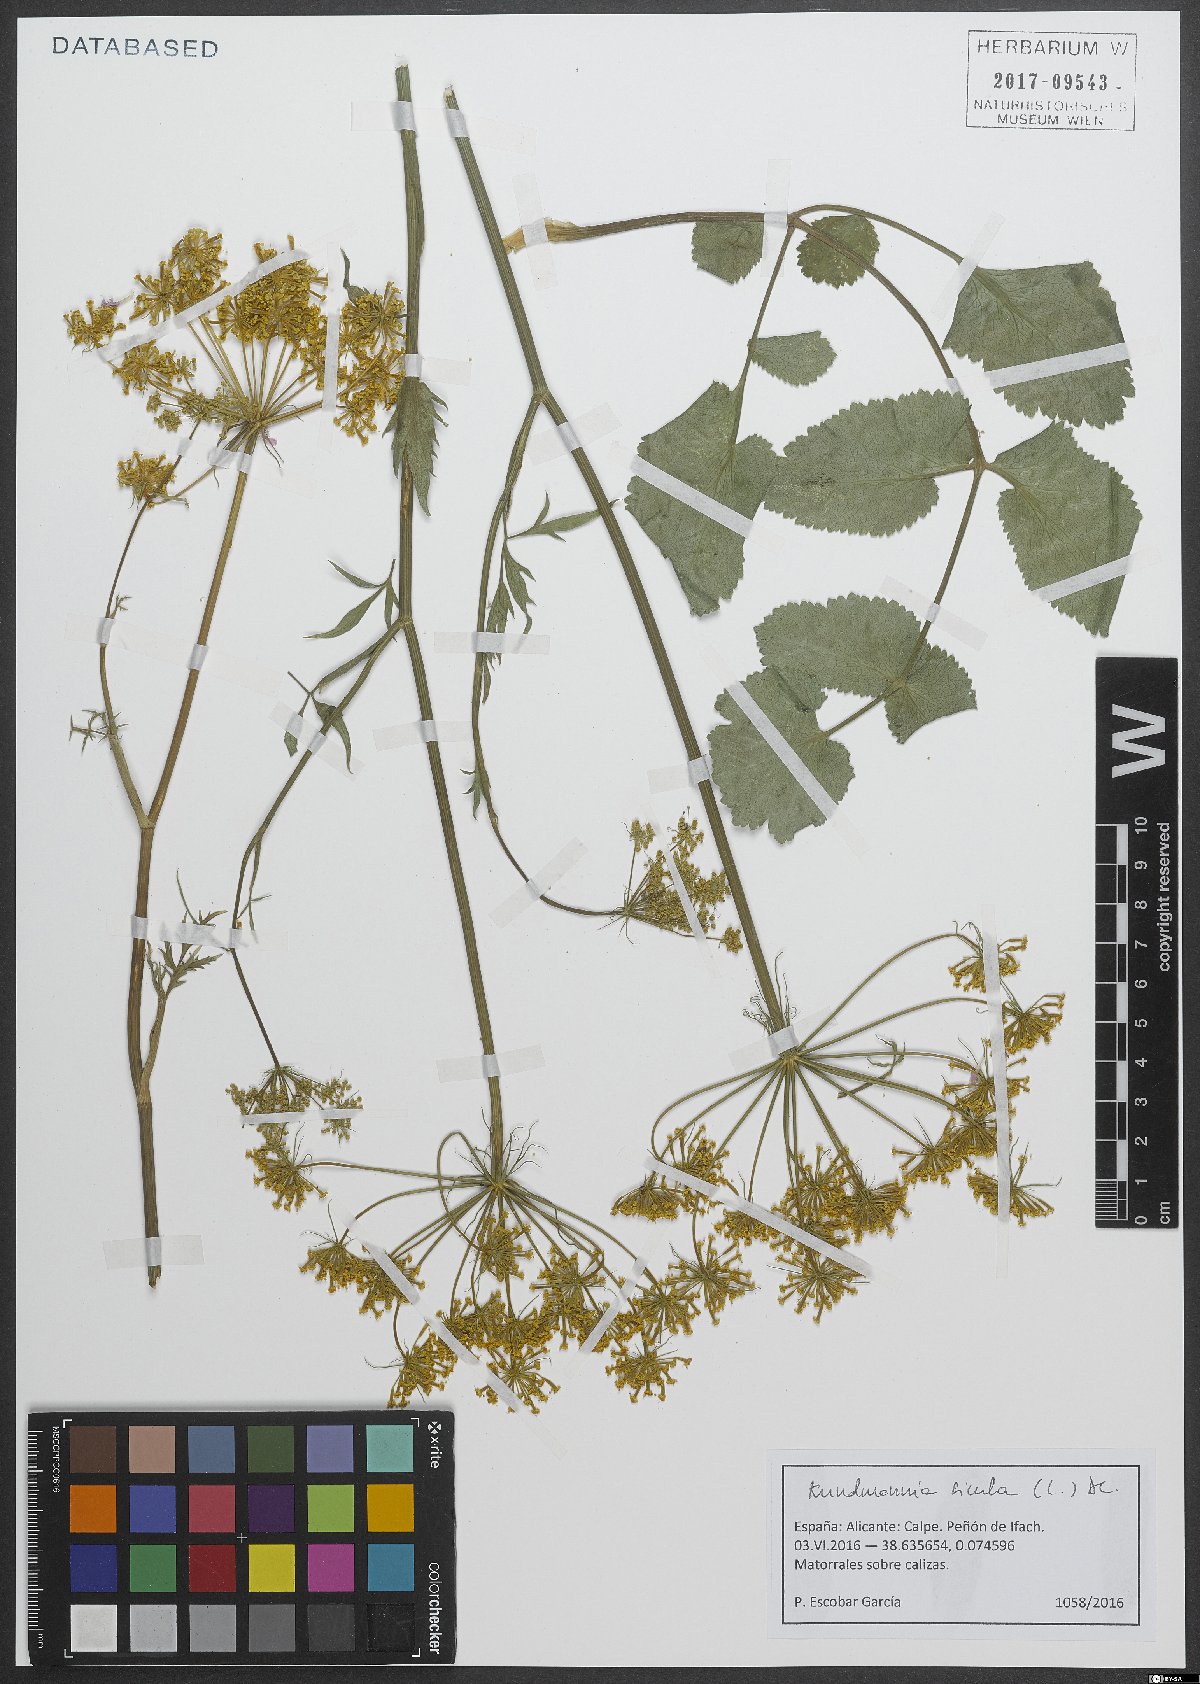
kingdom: Plantae
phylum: Tracheophyta
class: Magnoliopsida
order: Apiales
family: Apiaceae
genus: Kundmannia
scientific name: Kundmannia sicula
